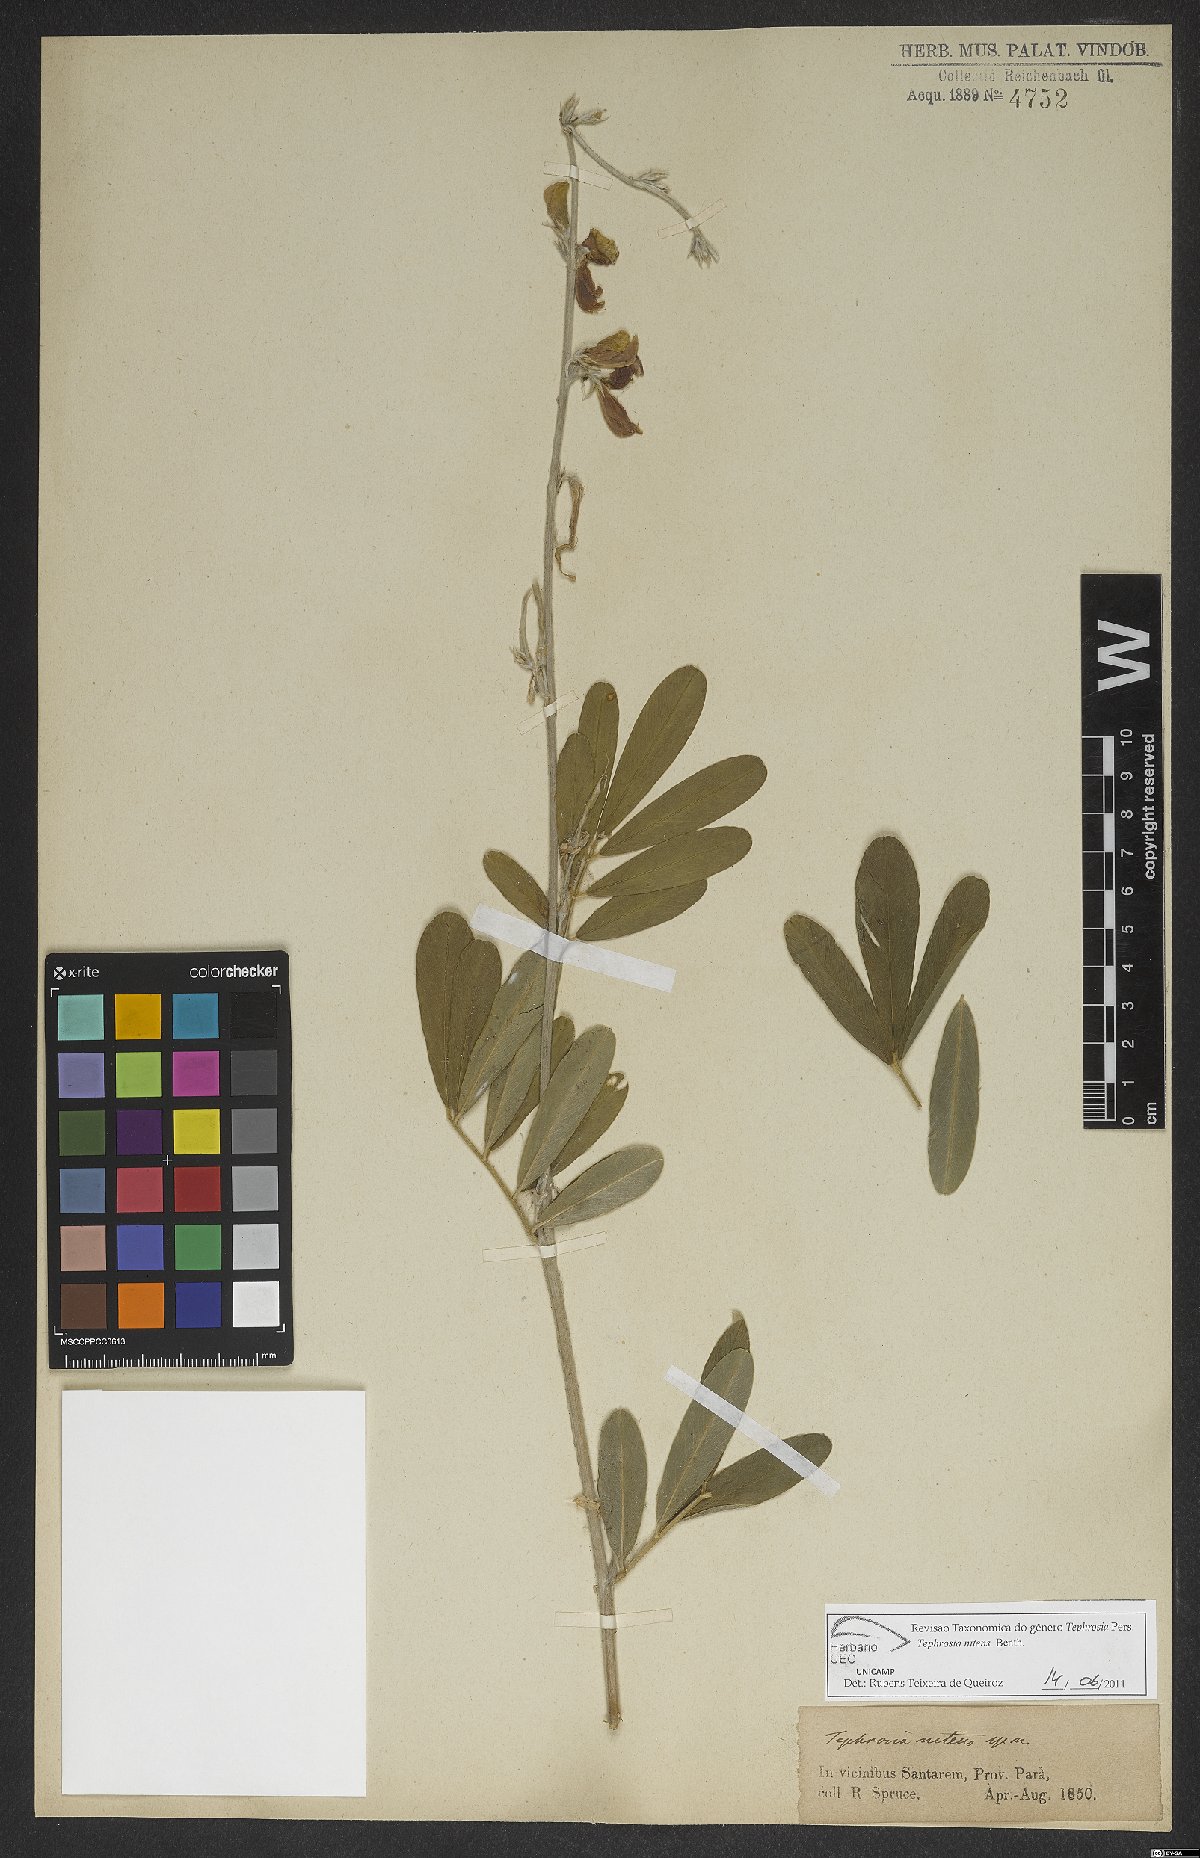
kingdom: Plantae
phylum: Tracheophyta
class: Magnoliopsida
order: Fabales
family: Fabaceae
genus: Tephrosia
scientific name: Tephrosia nitens
